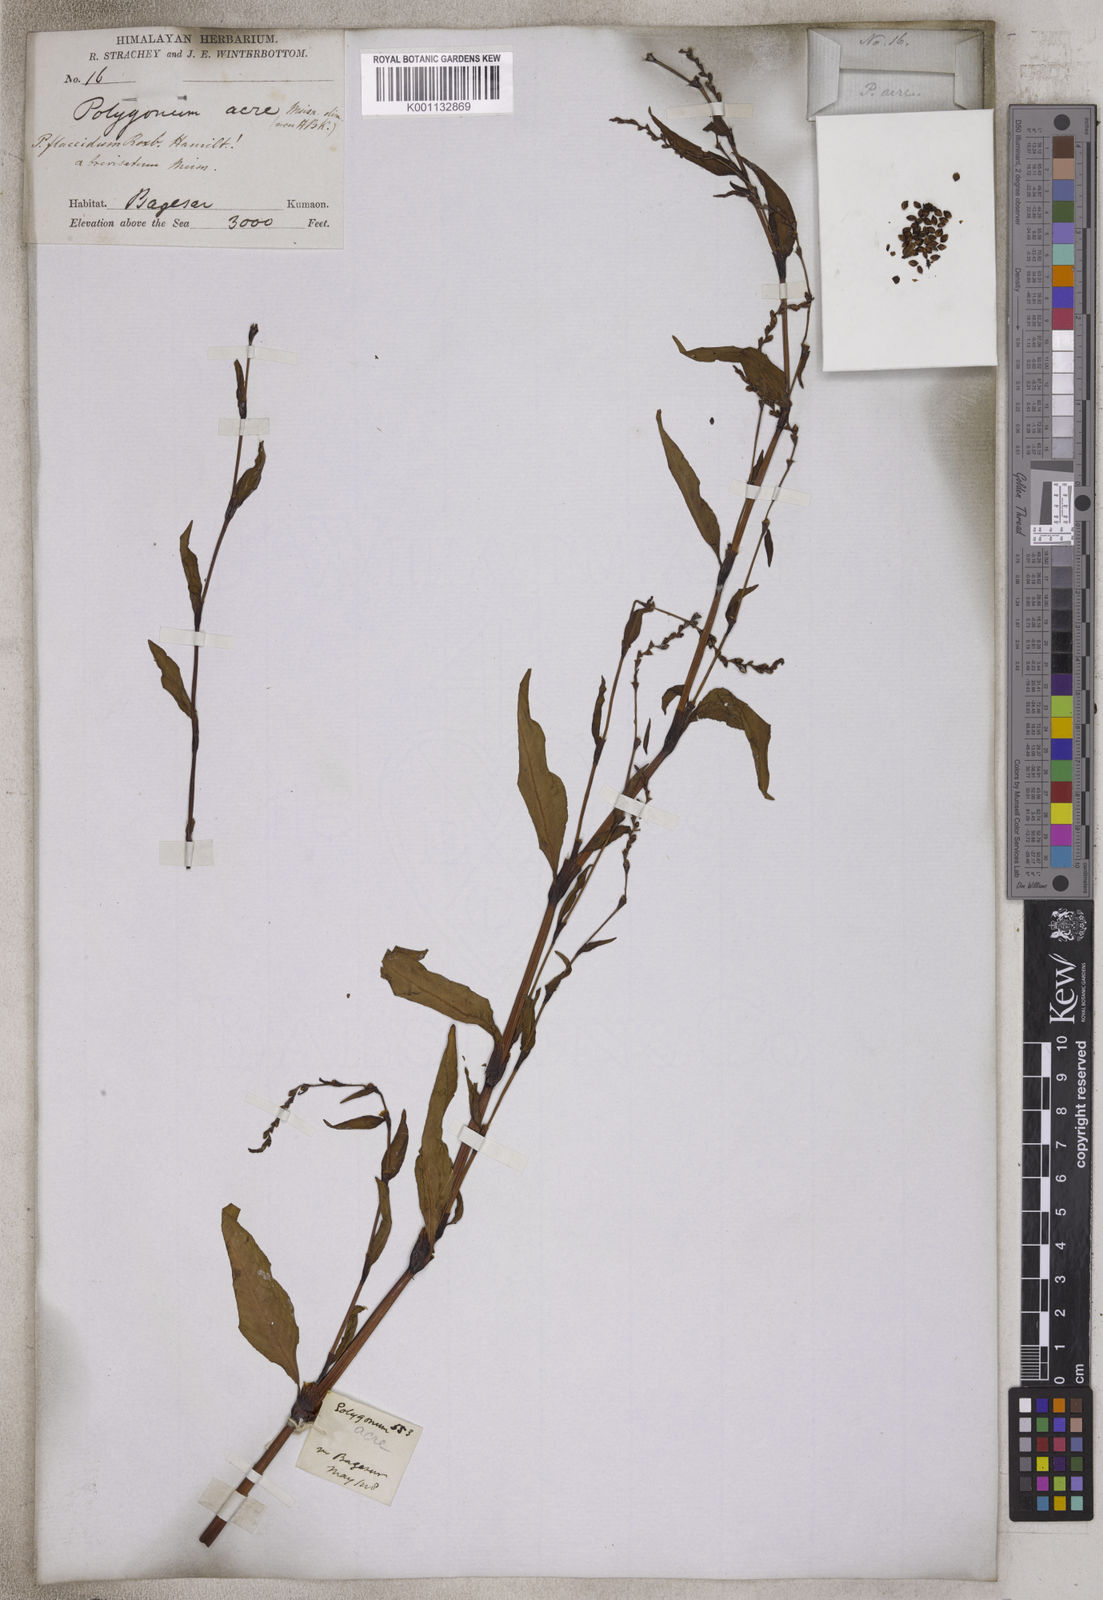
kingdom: Plantae
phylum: Tracheophyta
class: Magnoliopsida
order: Caryophyllales
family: Polygonaceae
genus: Persicaria
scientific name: Persicaria punctata
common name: Dotted smartweed
